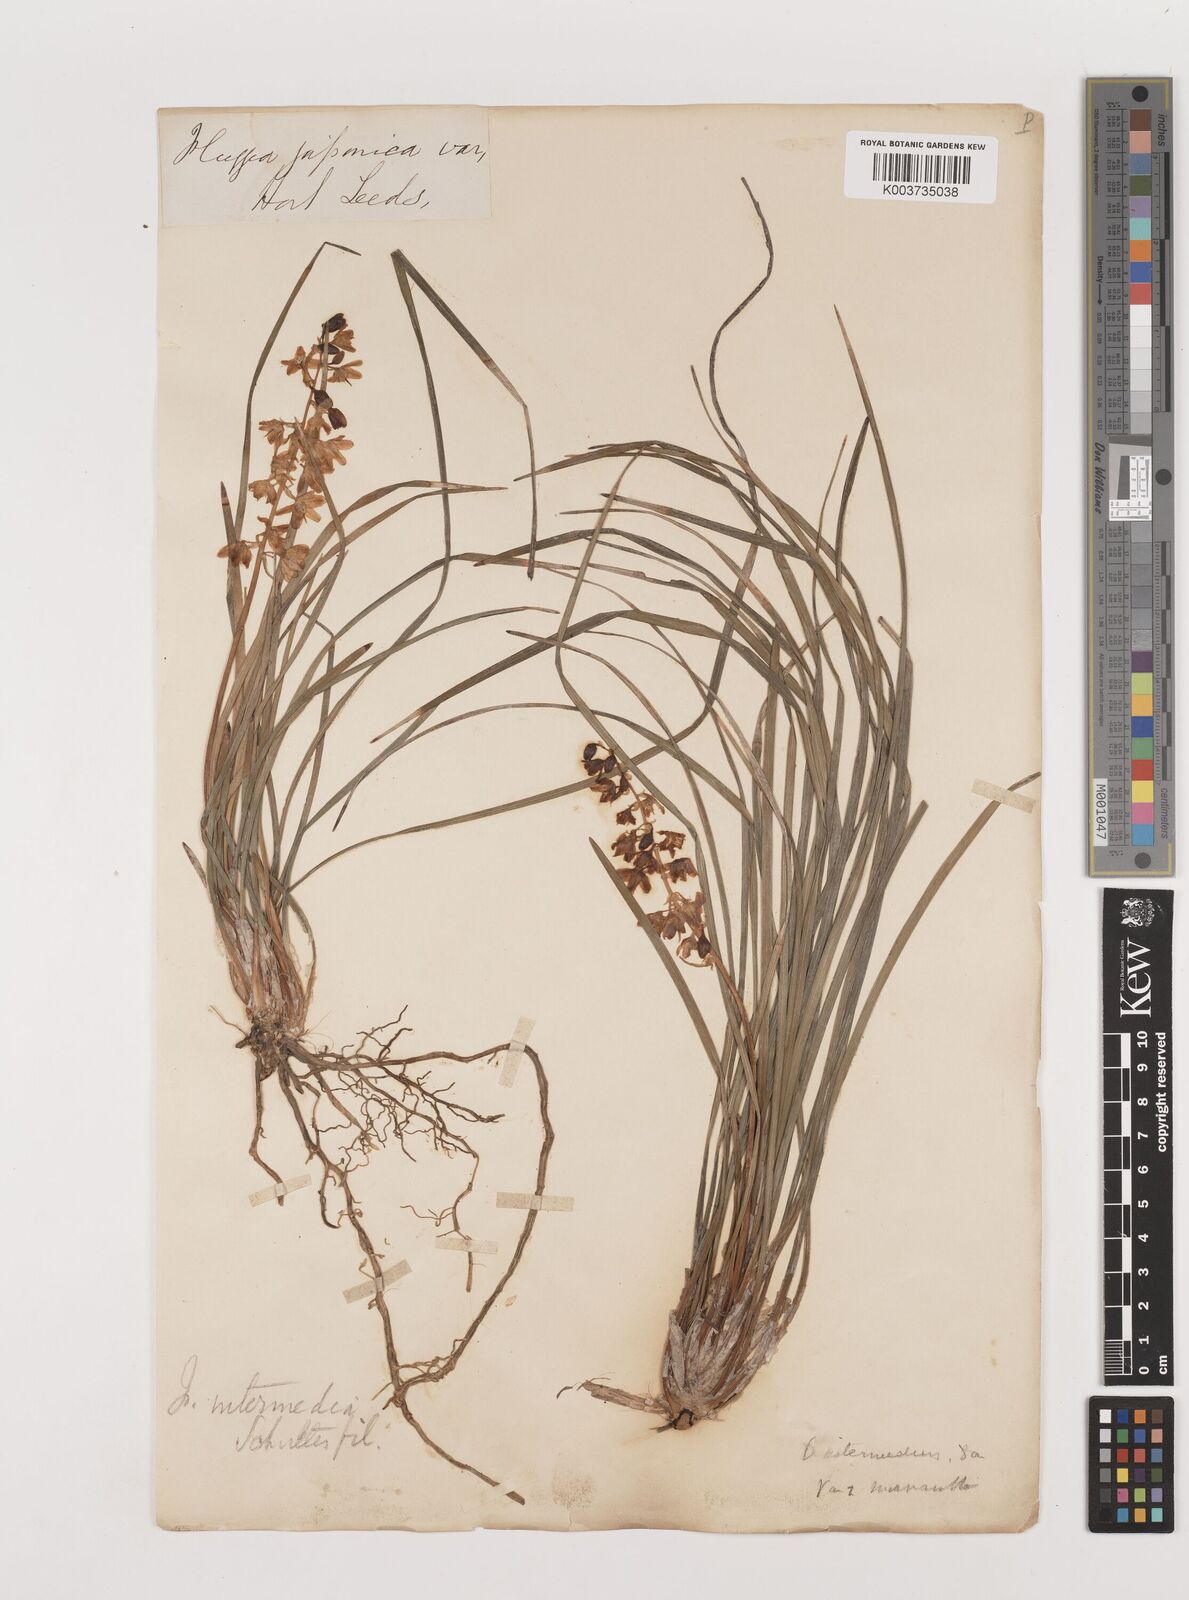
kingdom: Plantae
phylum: Tracheophyta
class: Liliopsida
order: Asparagales
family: Asparagaceae
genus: Ophiopogon
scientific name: Ophiopogon intermedius
